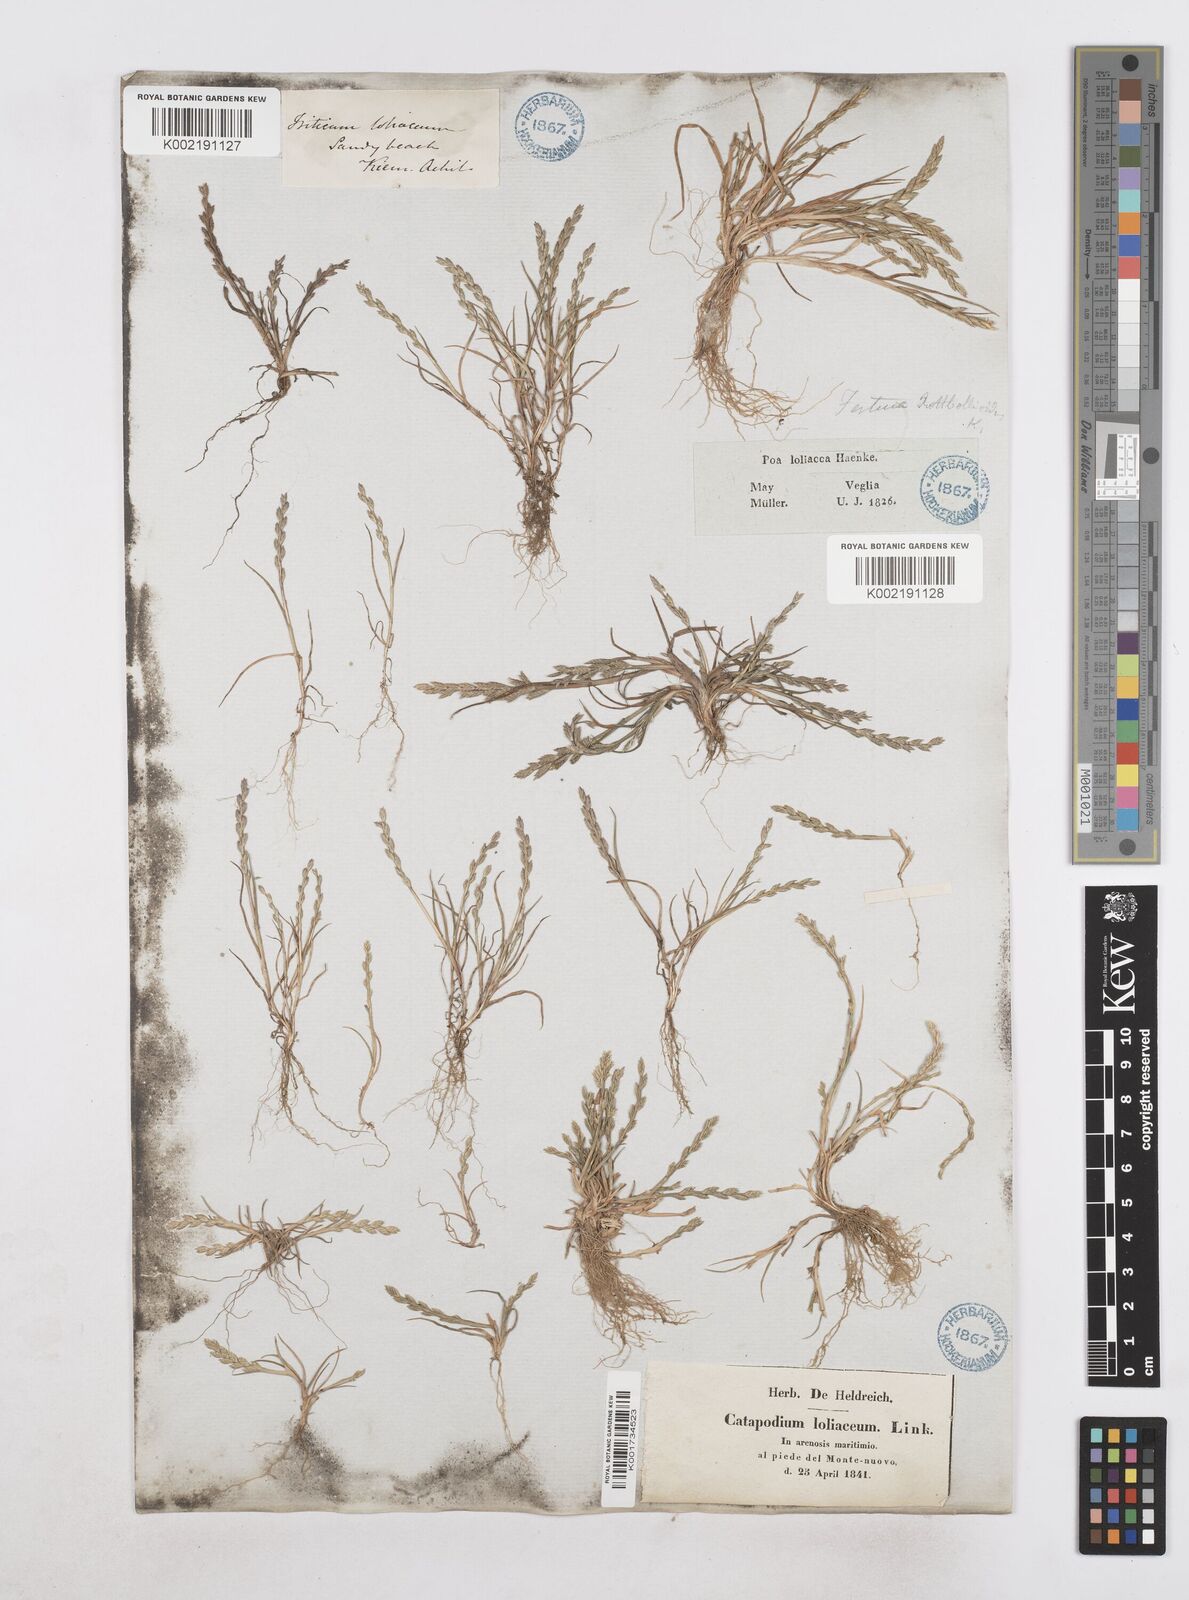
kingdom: Plantae
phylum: Tracheophyta
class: Liliopsida
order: Poales
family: Poaceae
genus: Catapodium
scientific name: Catapodium marinum
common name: Sea fern-grass
